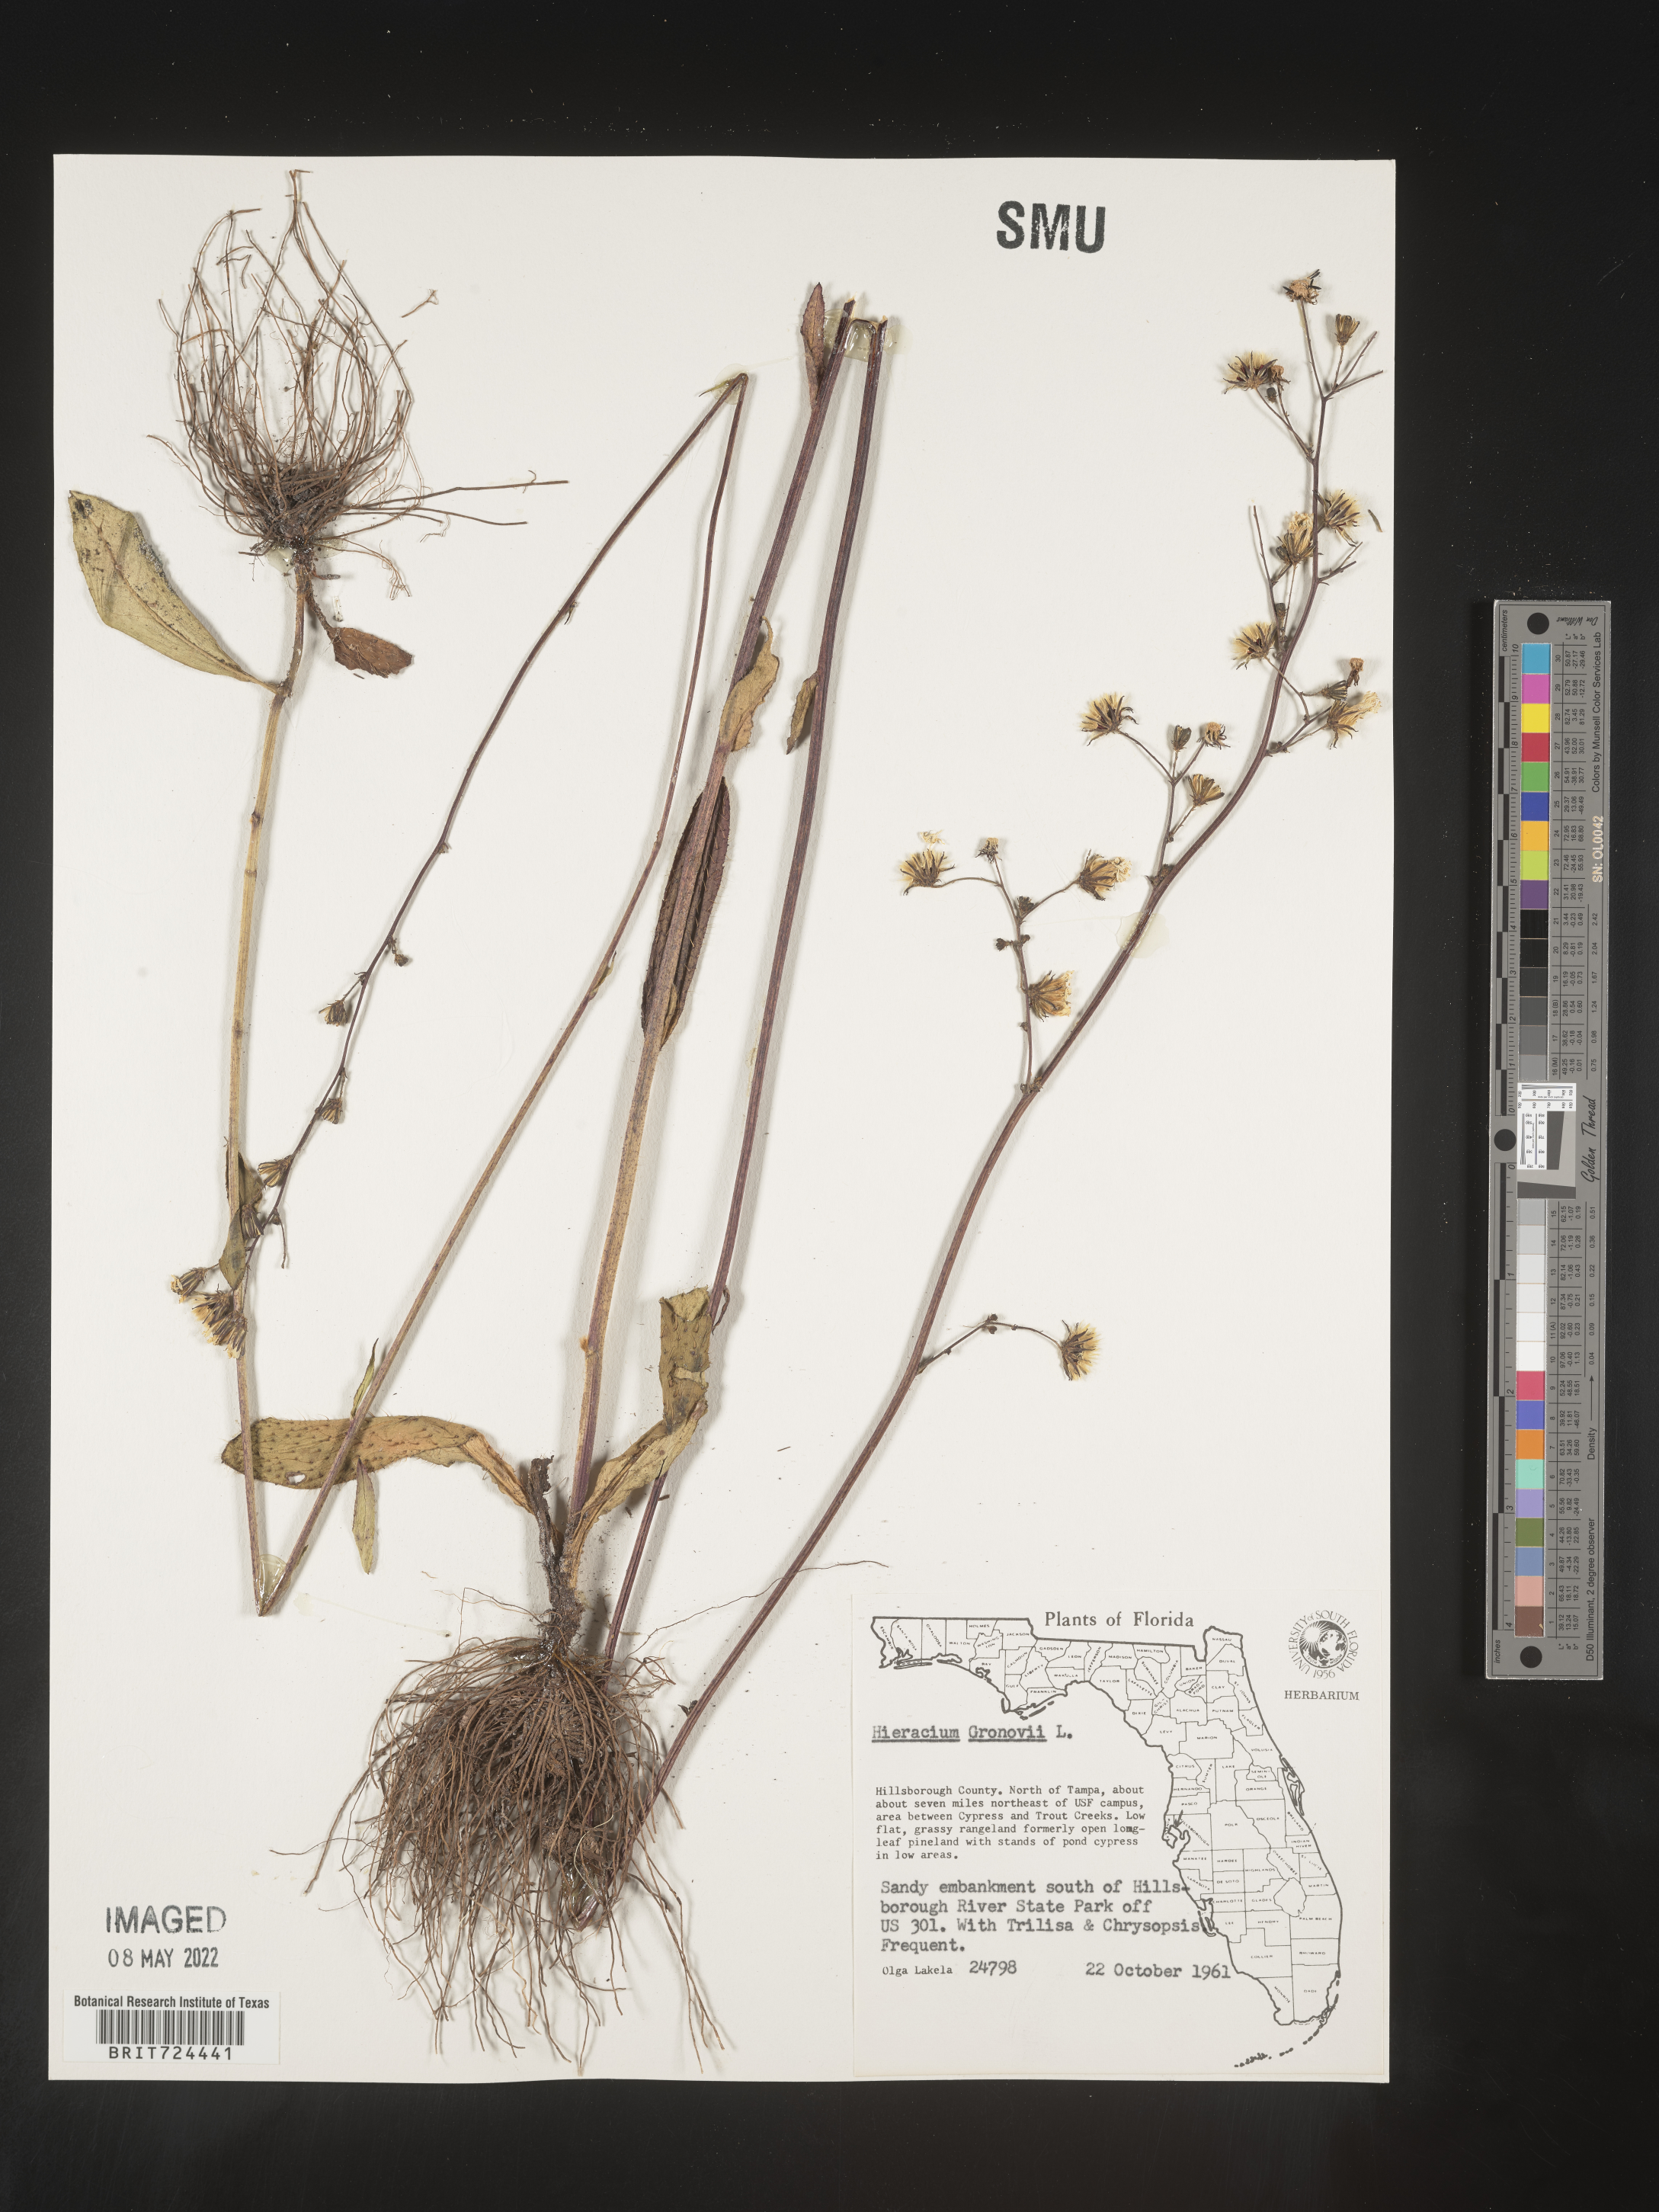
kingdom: Plantae
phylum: Tracheophyta
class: Magnoliopsida
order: Asterales
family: Asteraceae
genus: Hieracium
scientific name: Hieracium gronovii
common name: Beaked hawkweed
